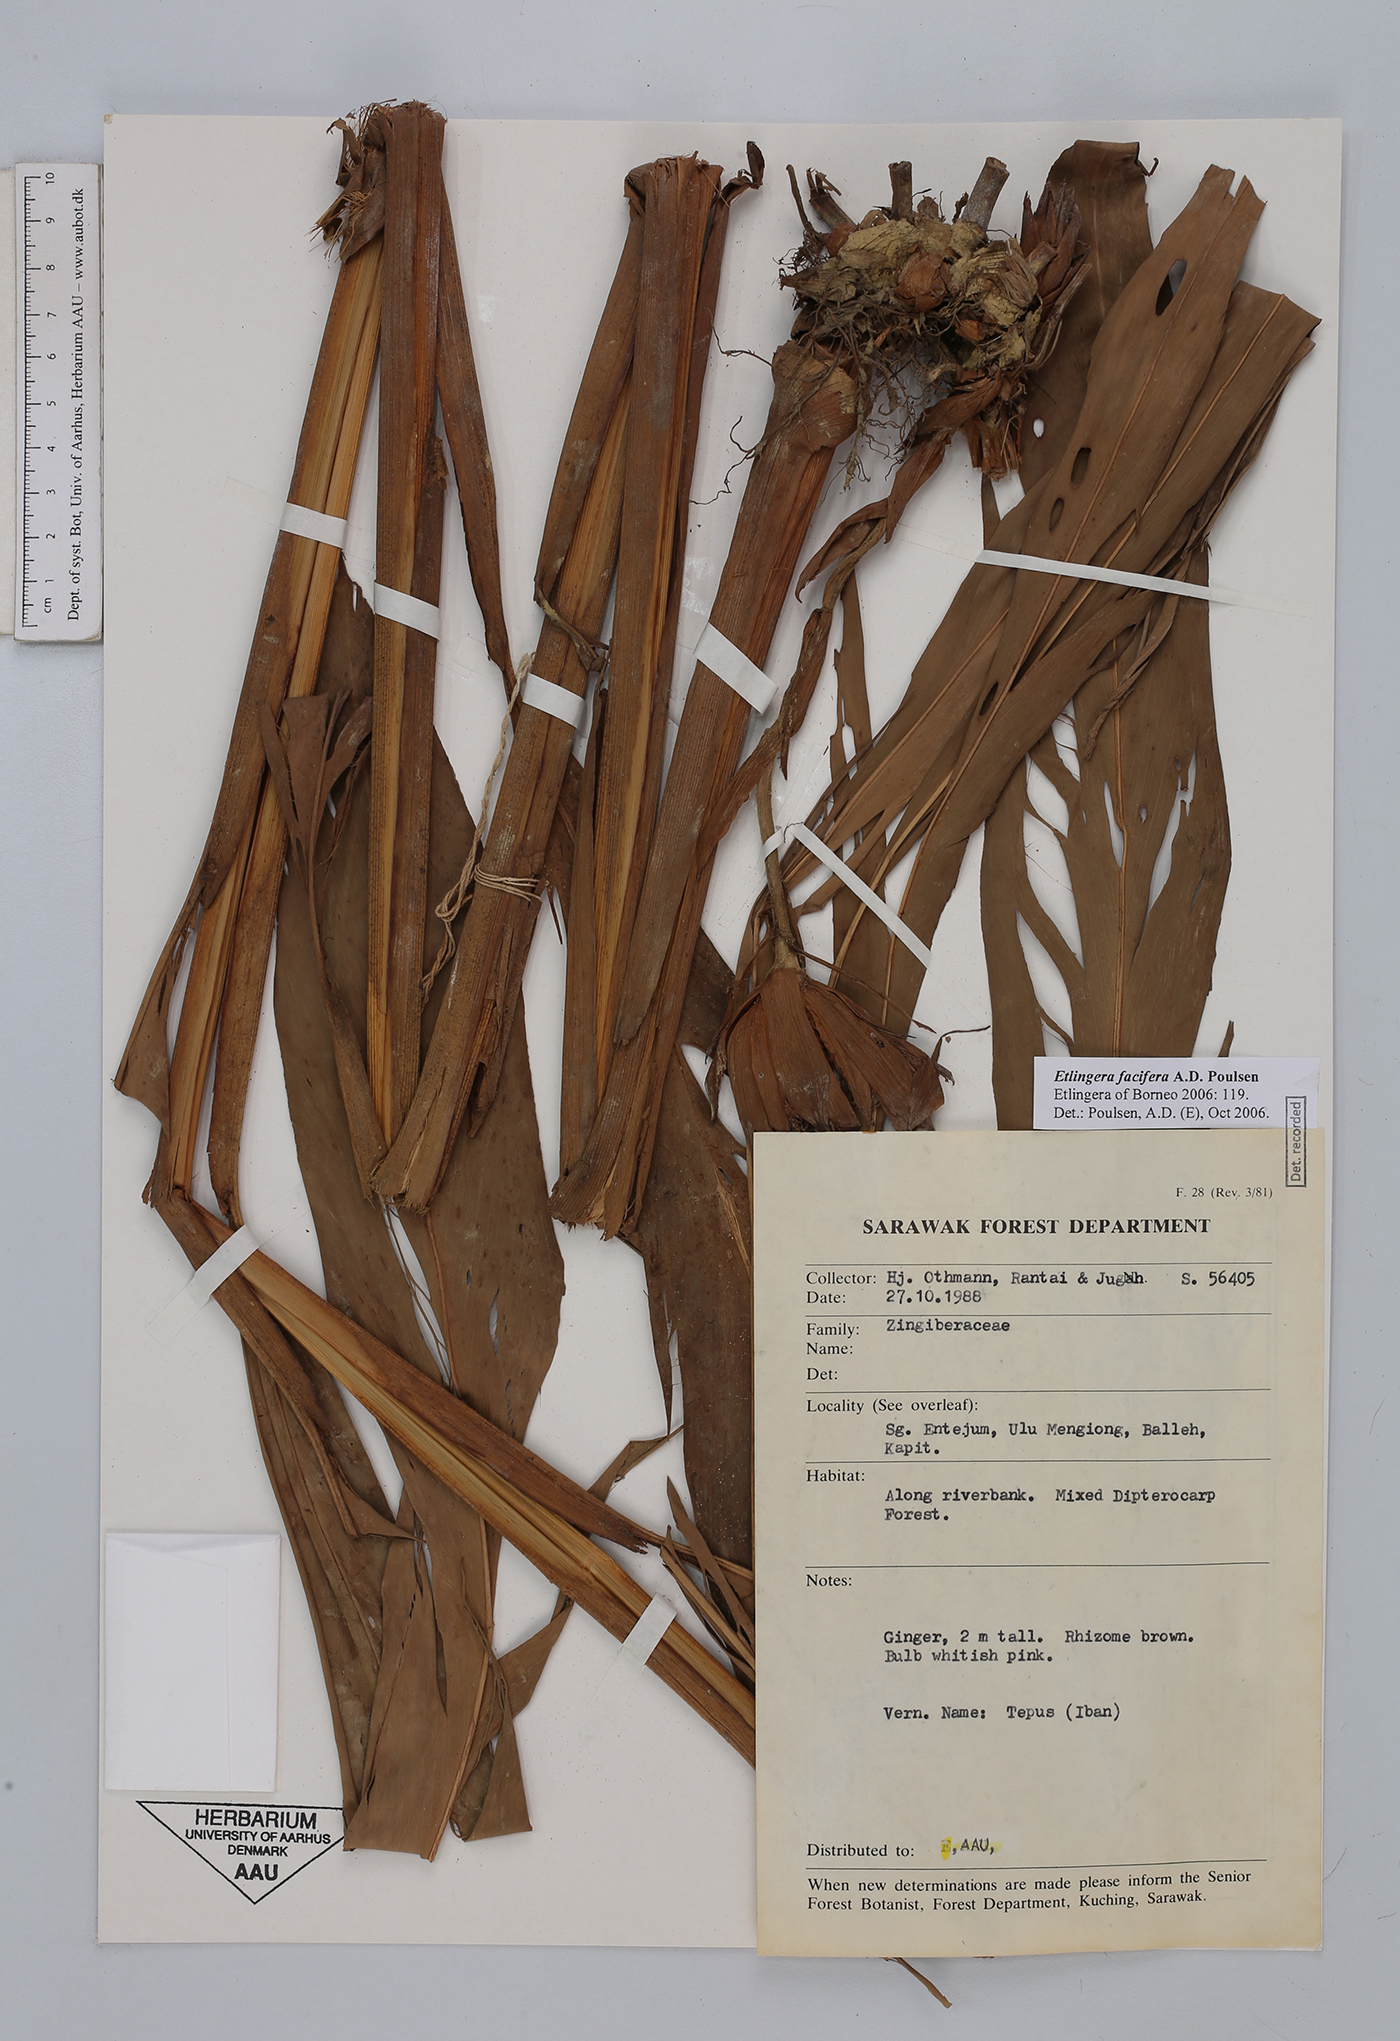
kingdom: Plantae
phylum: Tracheophyta
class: Liliopsida
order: Zingiberales
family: Zingiberaceae
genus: Etlingera
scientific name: Etlingera facifera
